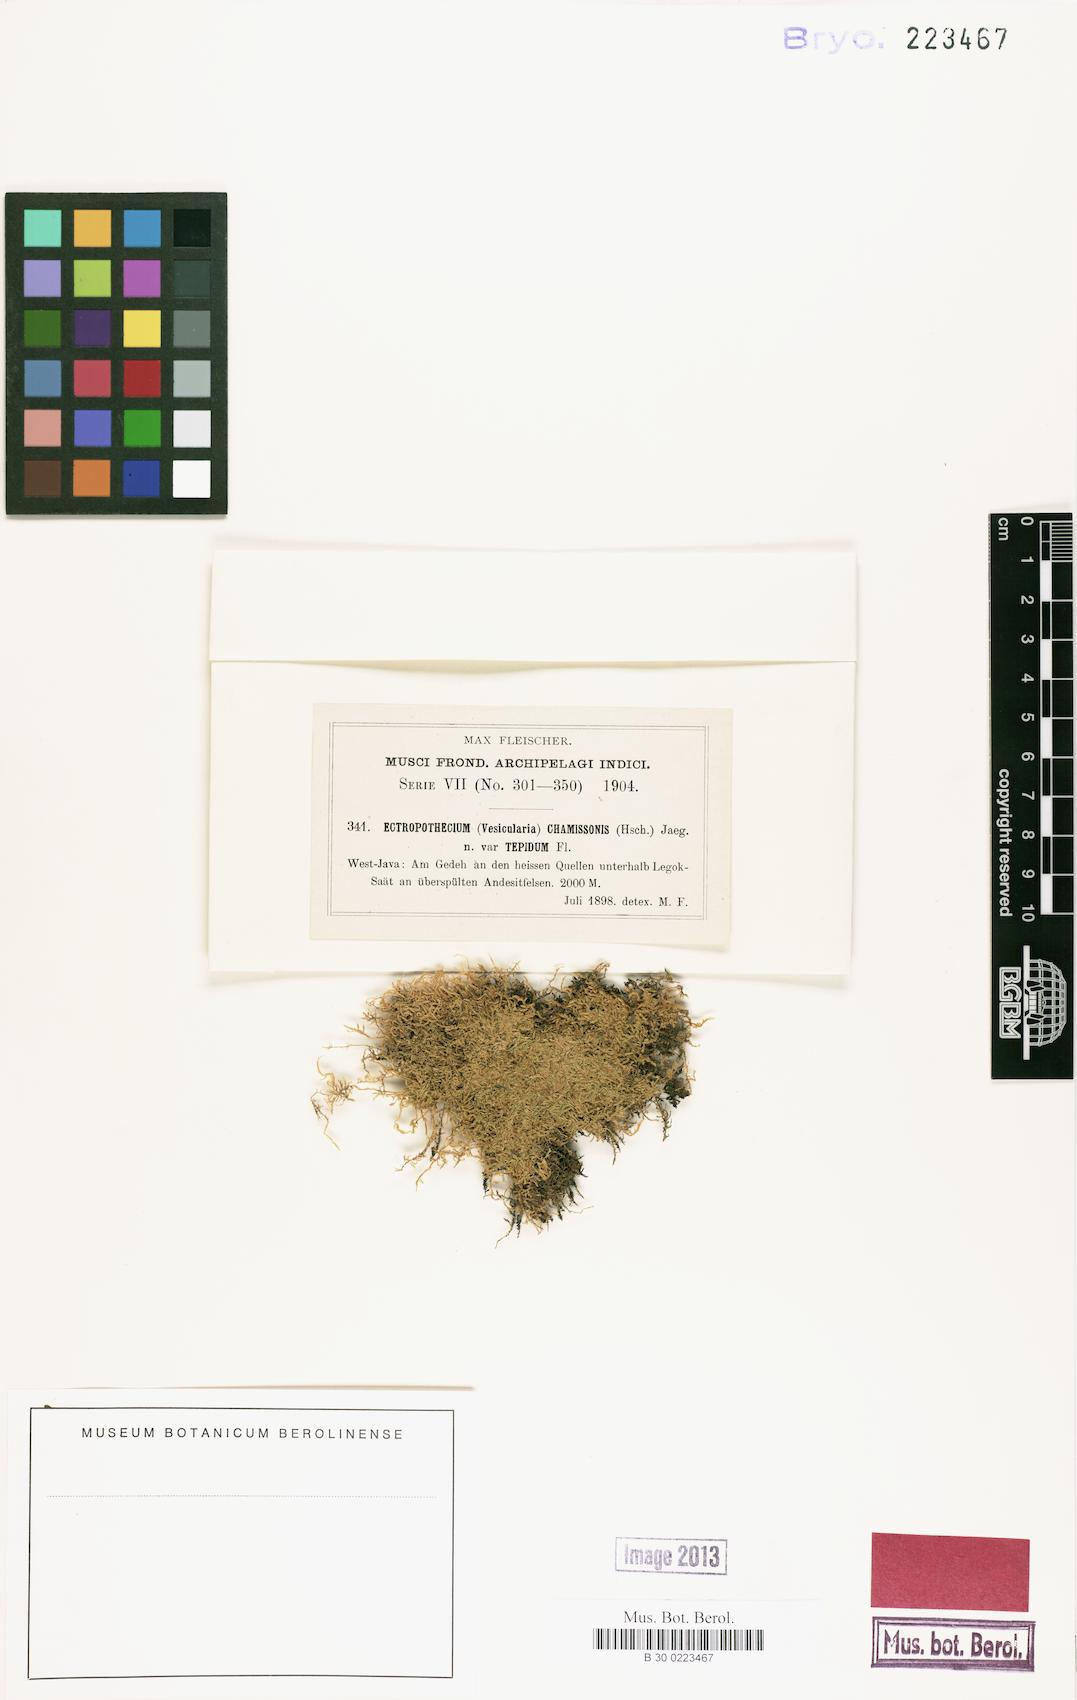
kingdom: Plantae
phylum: Bryophyta
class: Bryopsida
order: Hypnales
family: Hypnaceae
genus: Vesicularia
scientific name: Vesicularia tepida
